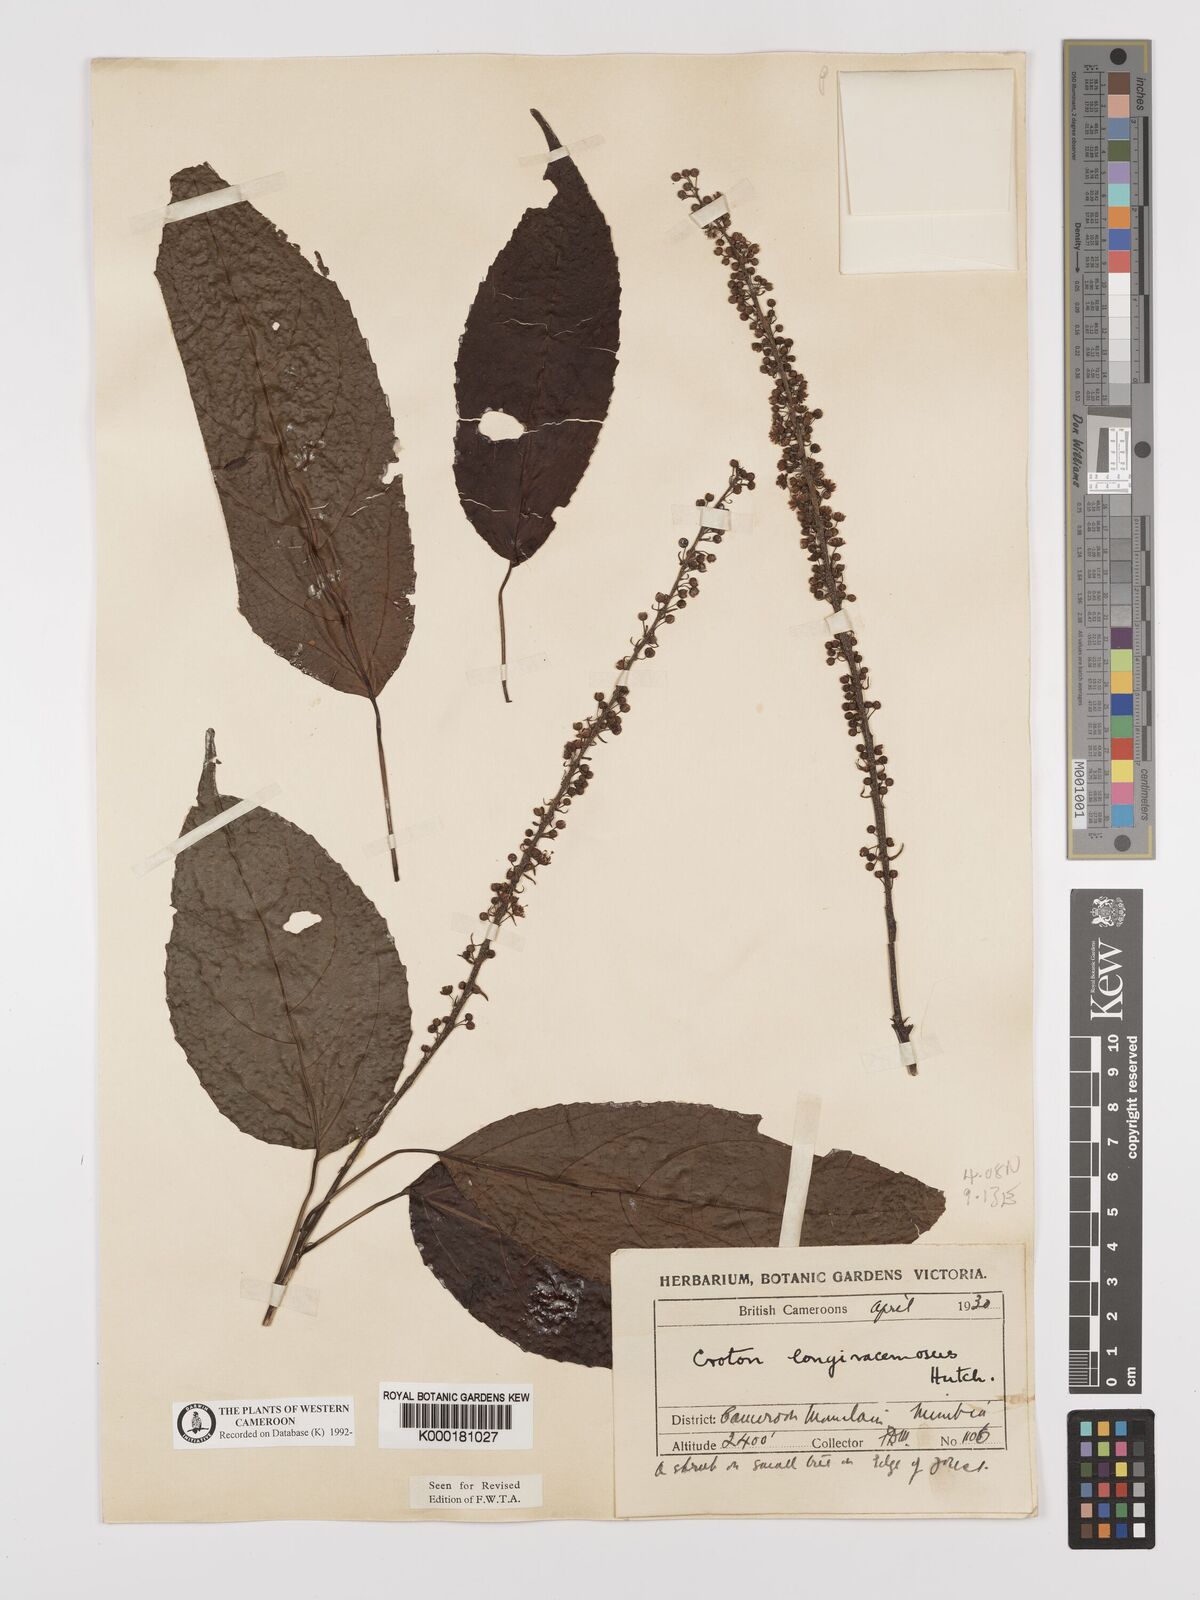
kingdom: Plantae
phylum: Tracheophyta
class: Magnoliopsida
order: Malpighiales
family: Euphorbiaceae
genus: Croton
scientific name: Croton longiracemosus
